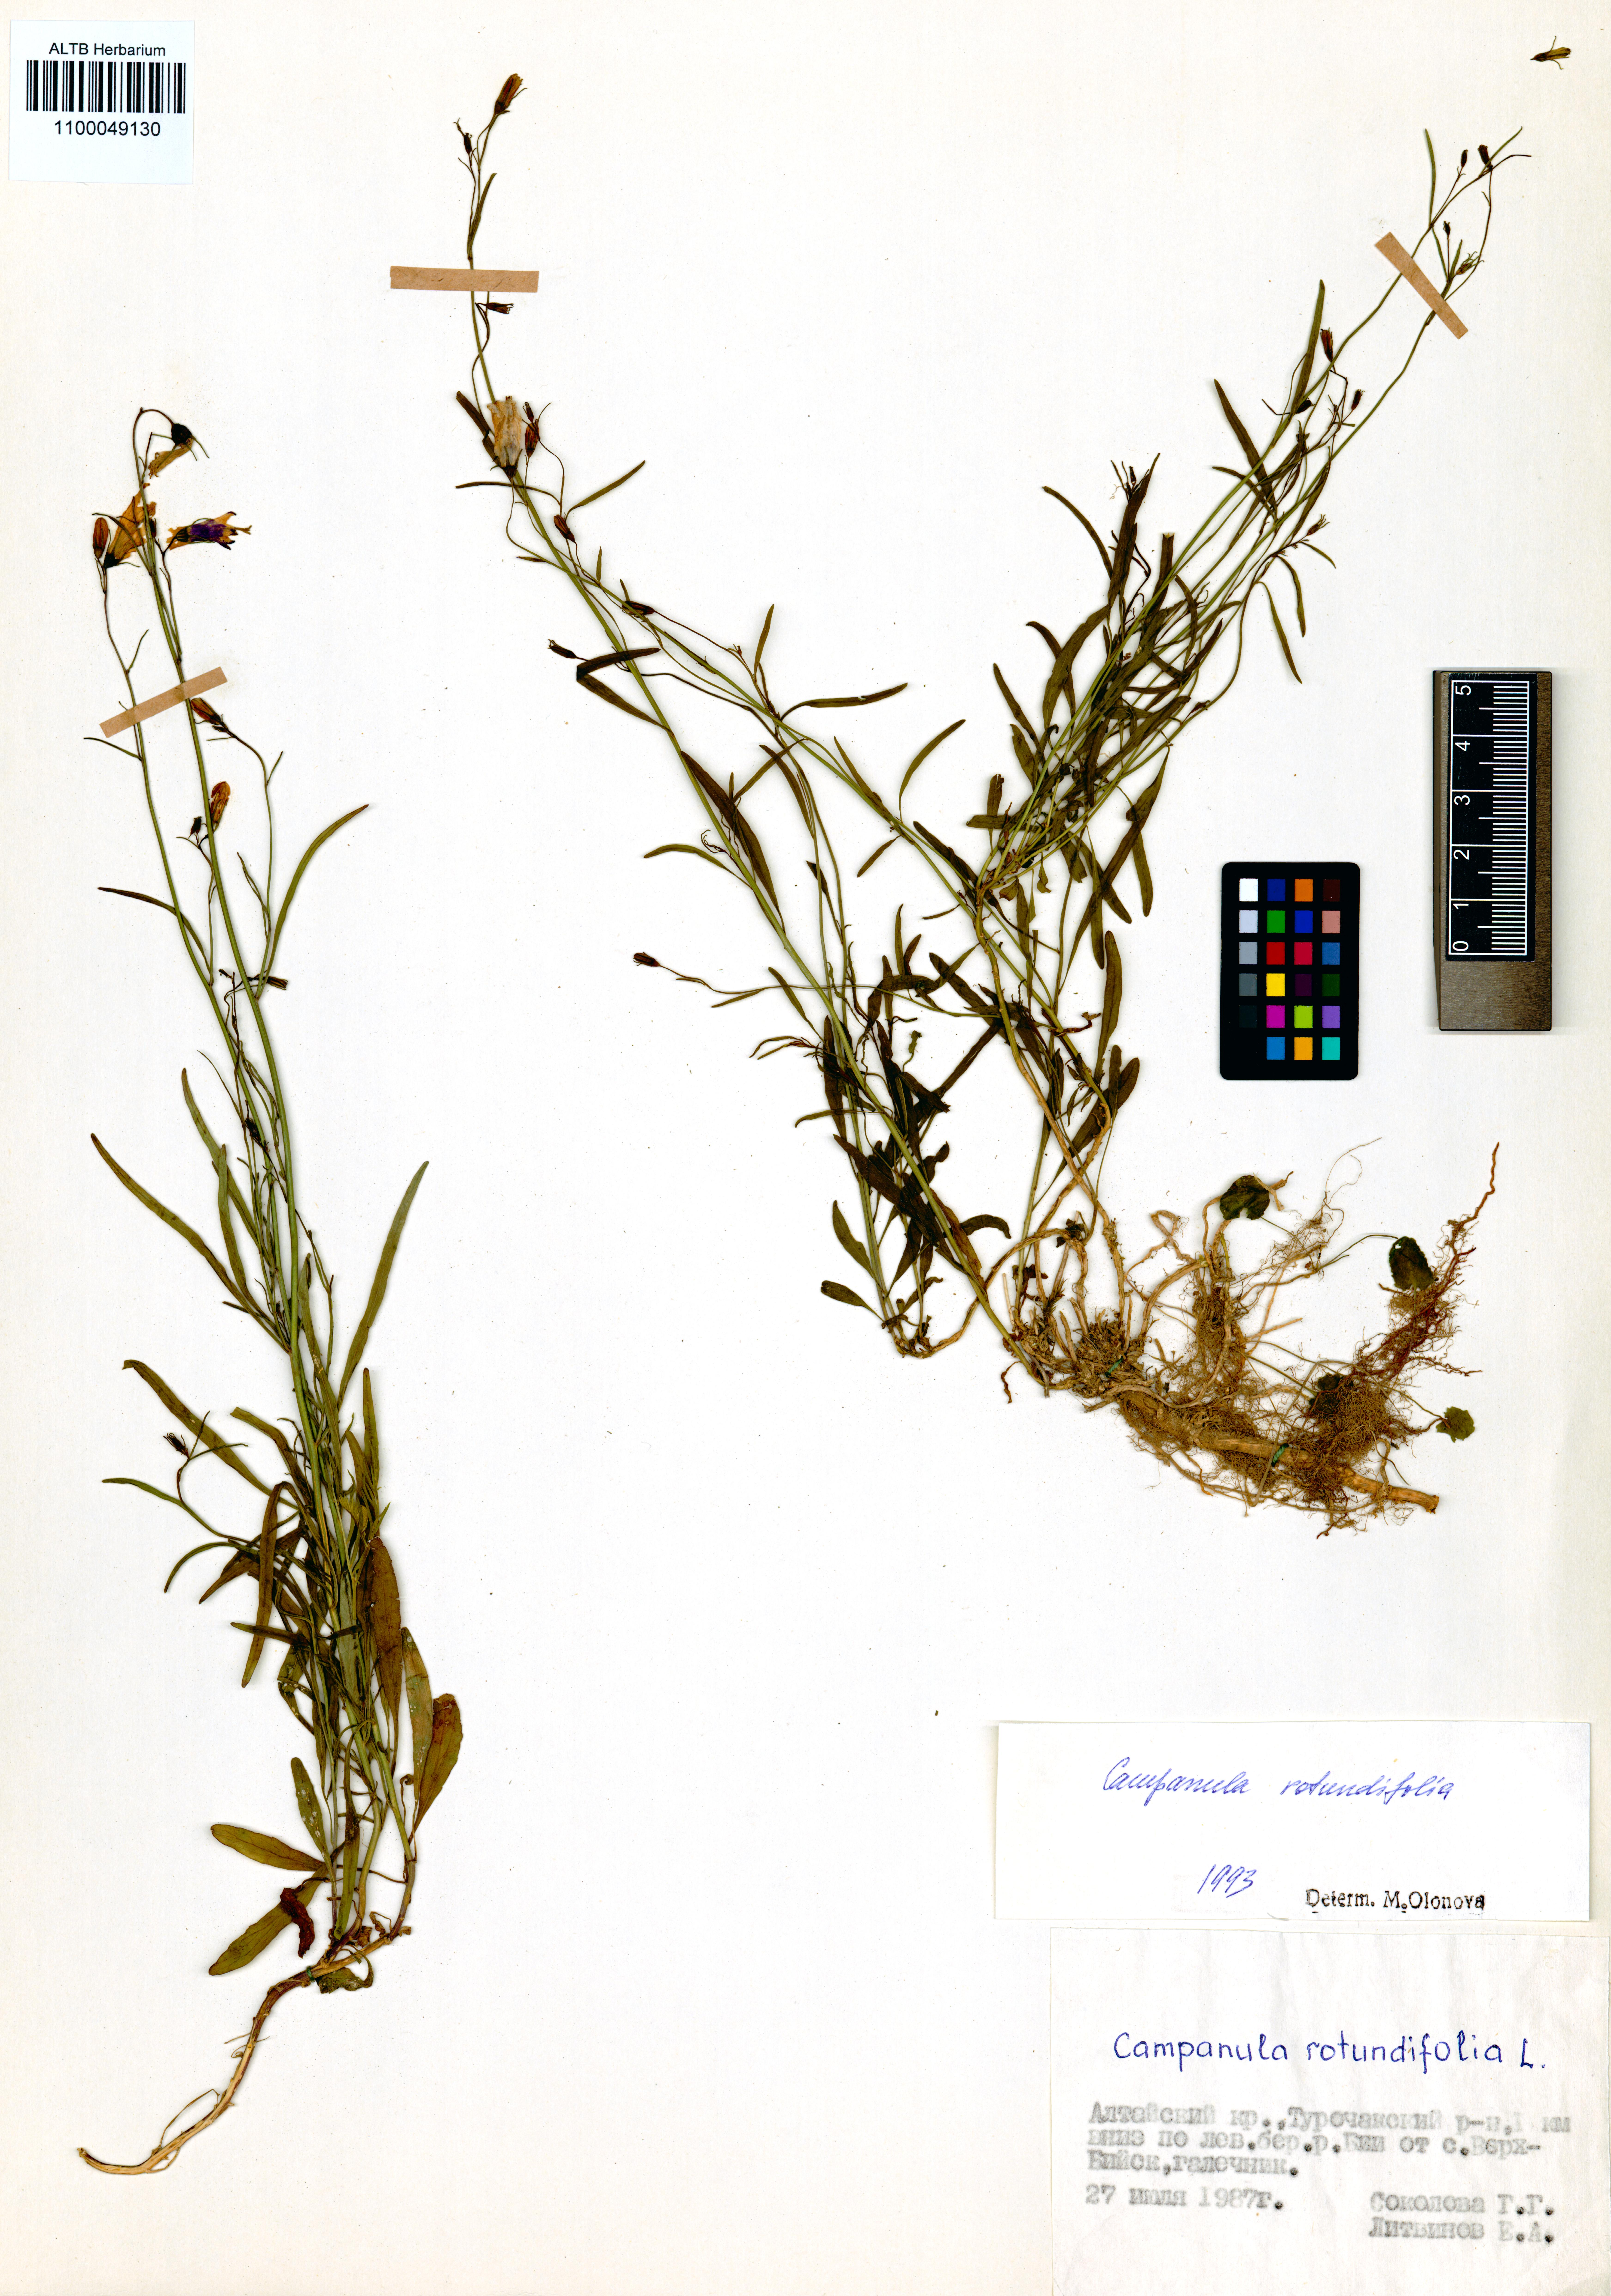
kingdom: Plantae
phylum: Tracheophyta
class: Magnoliopsida
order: Asterales
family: Campanulaceae
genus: Campanula
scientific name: Campanula rotundifolia
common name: Harebell
